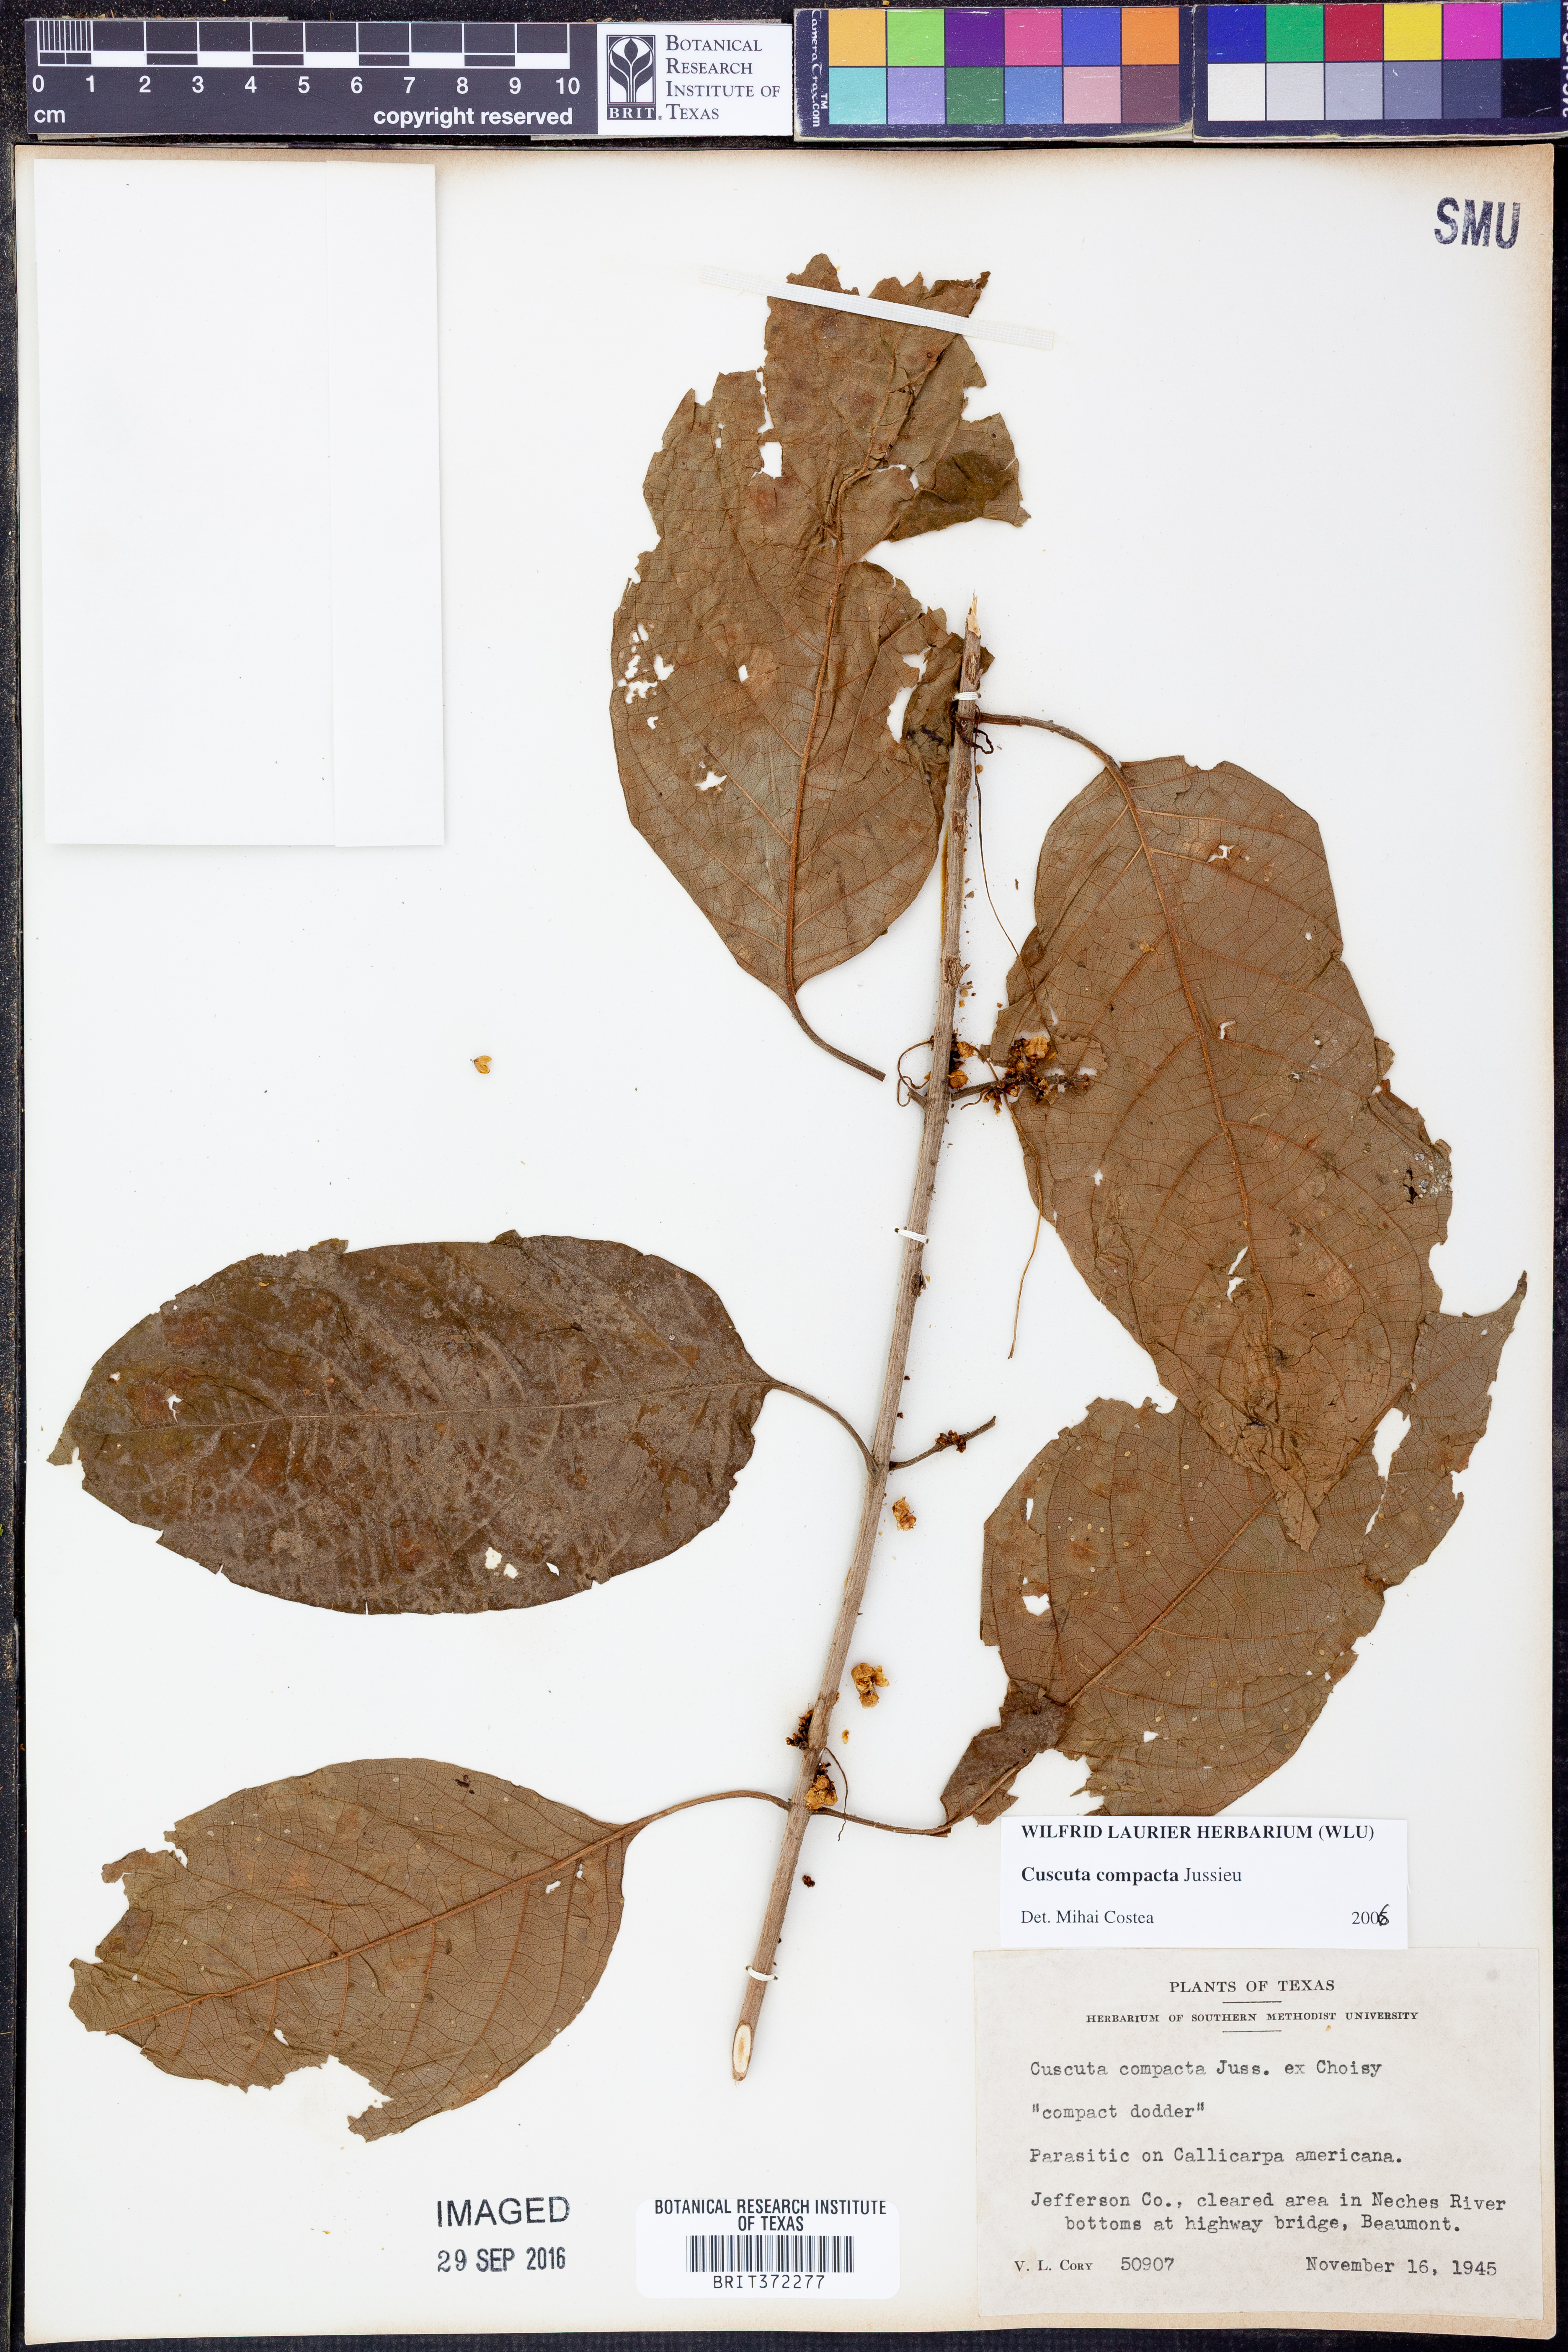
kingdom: Plantae
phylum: Tracheophyta
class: Magnoliopsida
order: Solanales
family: Convolvulaceae
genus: Cuscuta
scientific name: Cuscuta compacta
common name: Compact dodder
